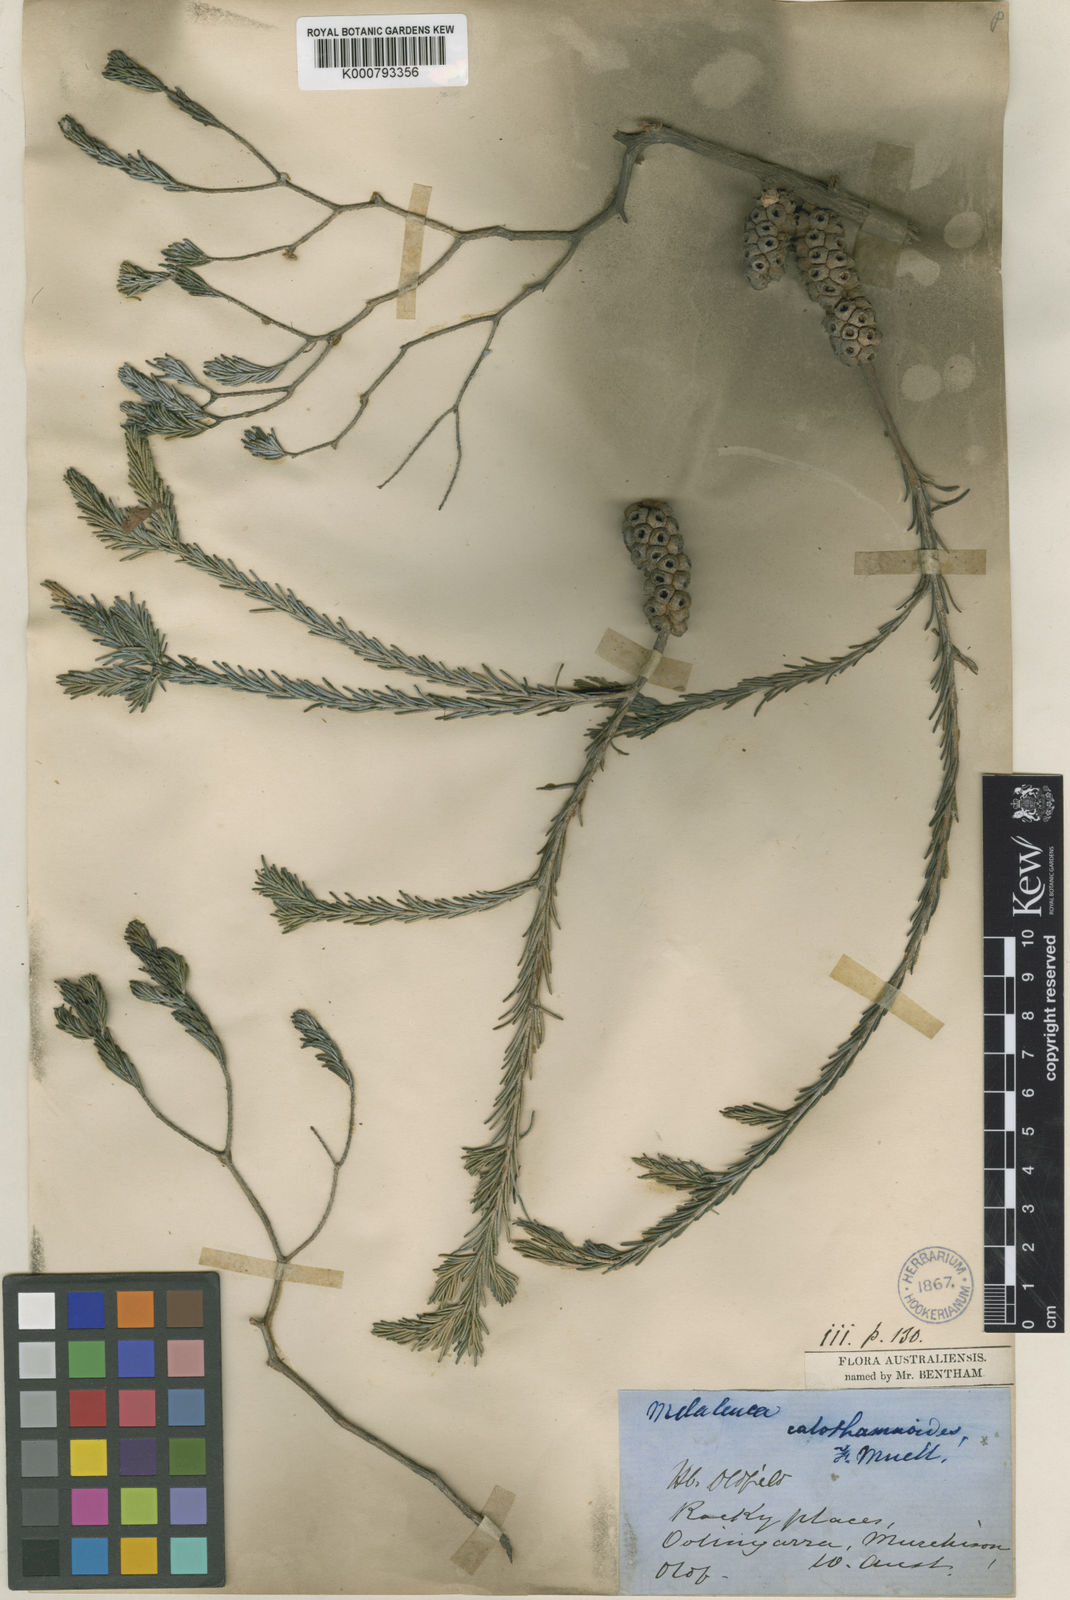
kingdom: Plantae
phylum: Tracheophyta
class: Magnoliopsida
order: Myrtales
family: Myrtaceae
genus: Melaleuca
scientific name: Melaleuca calothamnoides
